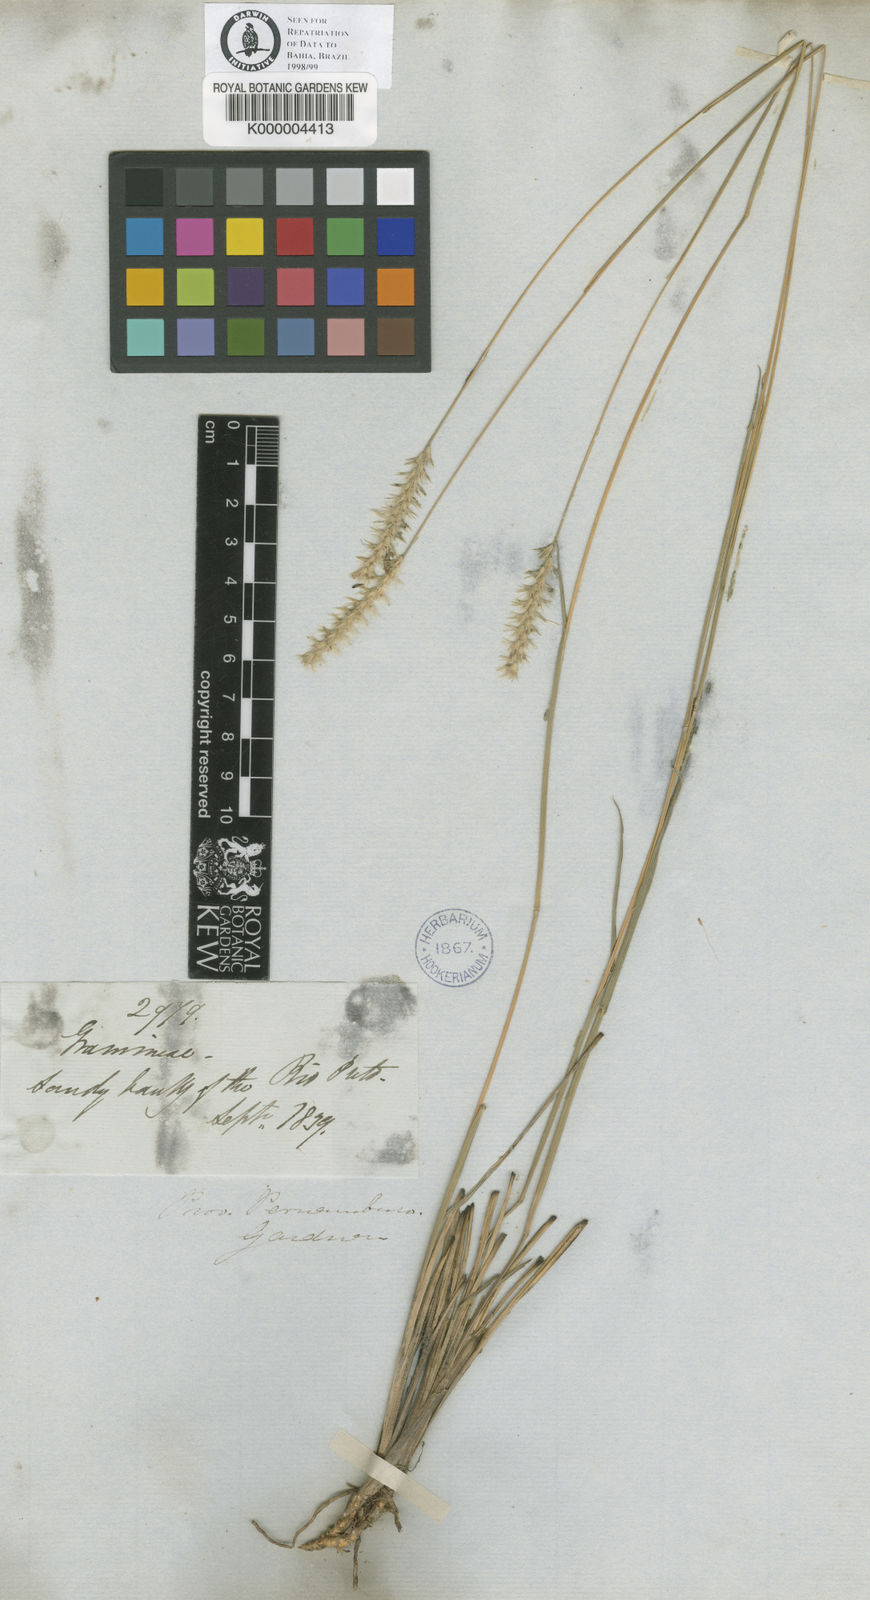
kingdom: Plantae
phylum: Tracheophyta
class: Liliopsida
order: Poales
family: Poaceae
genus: Mesosetum
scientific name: Mesosetum penicillatum
